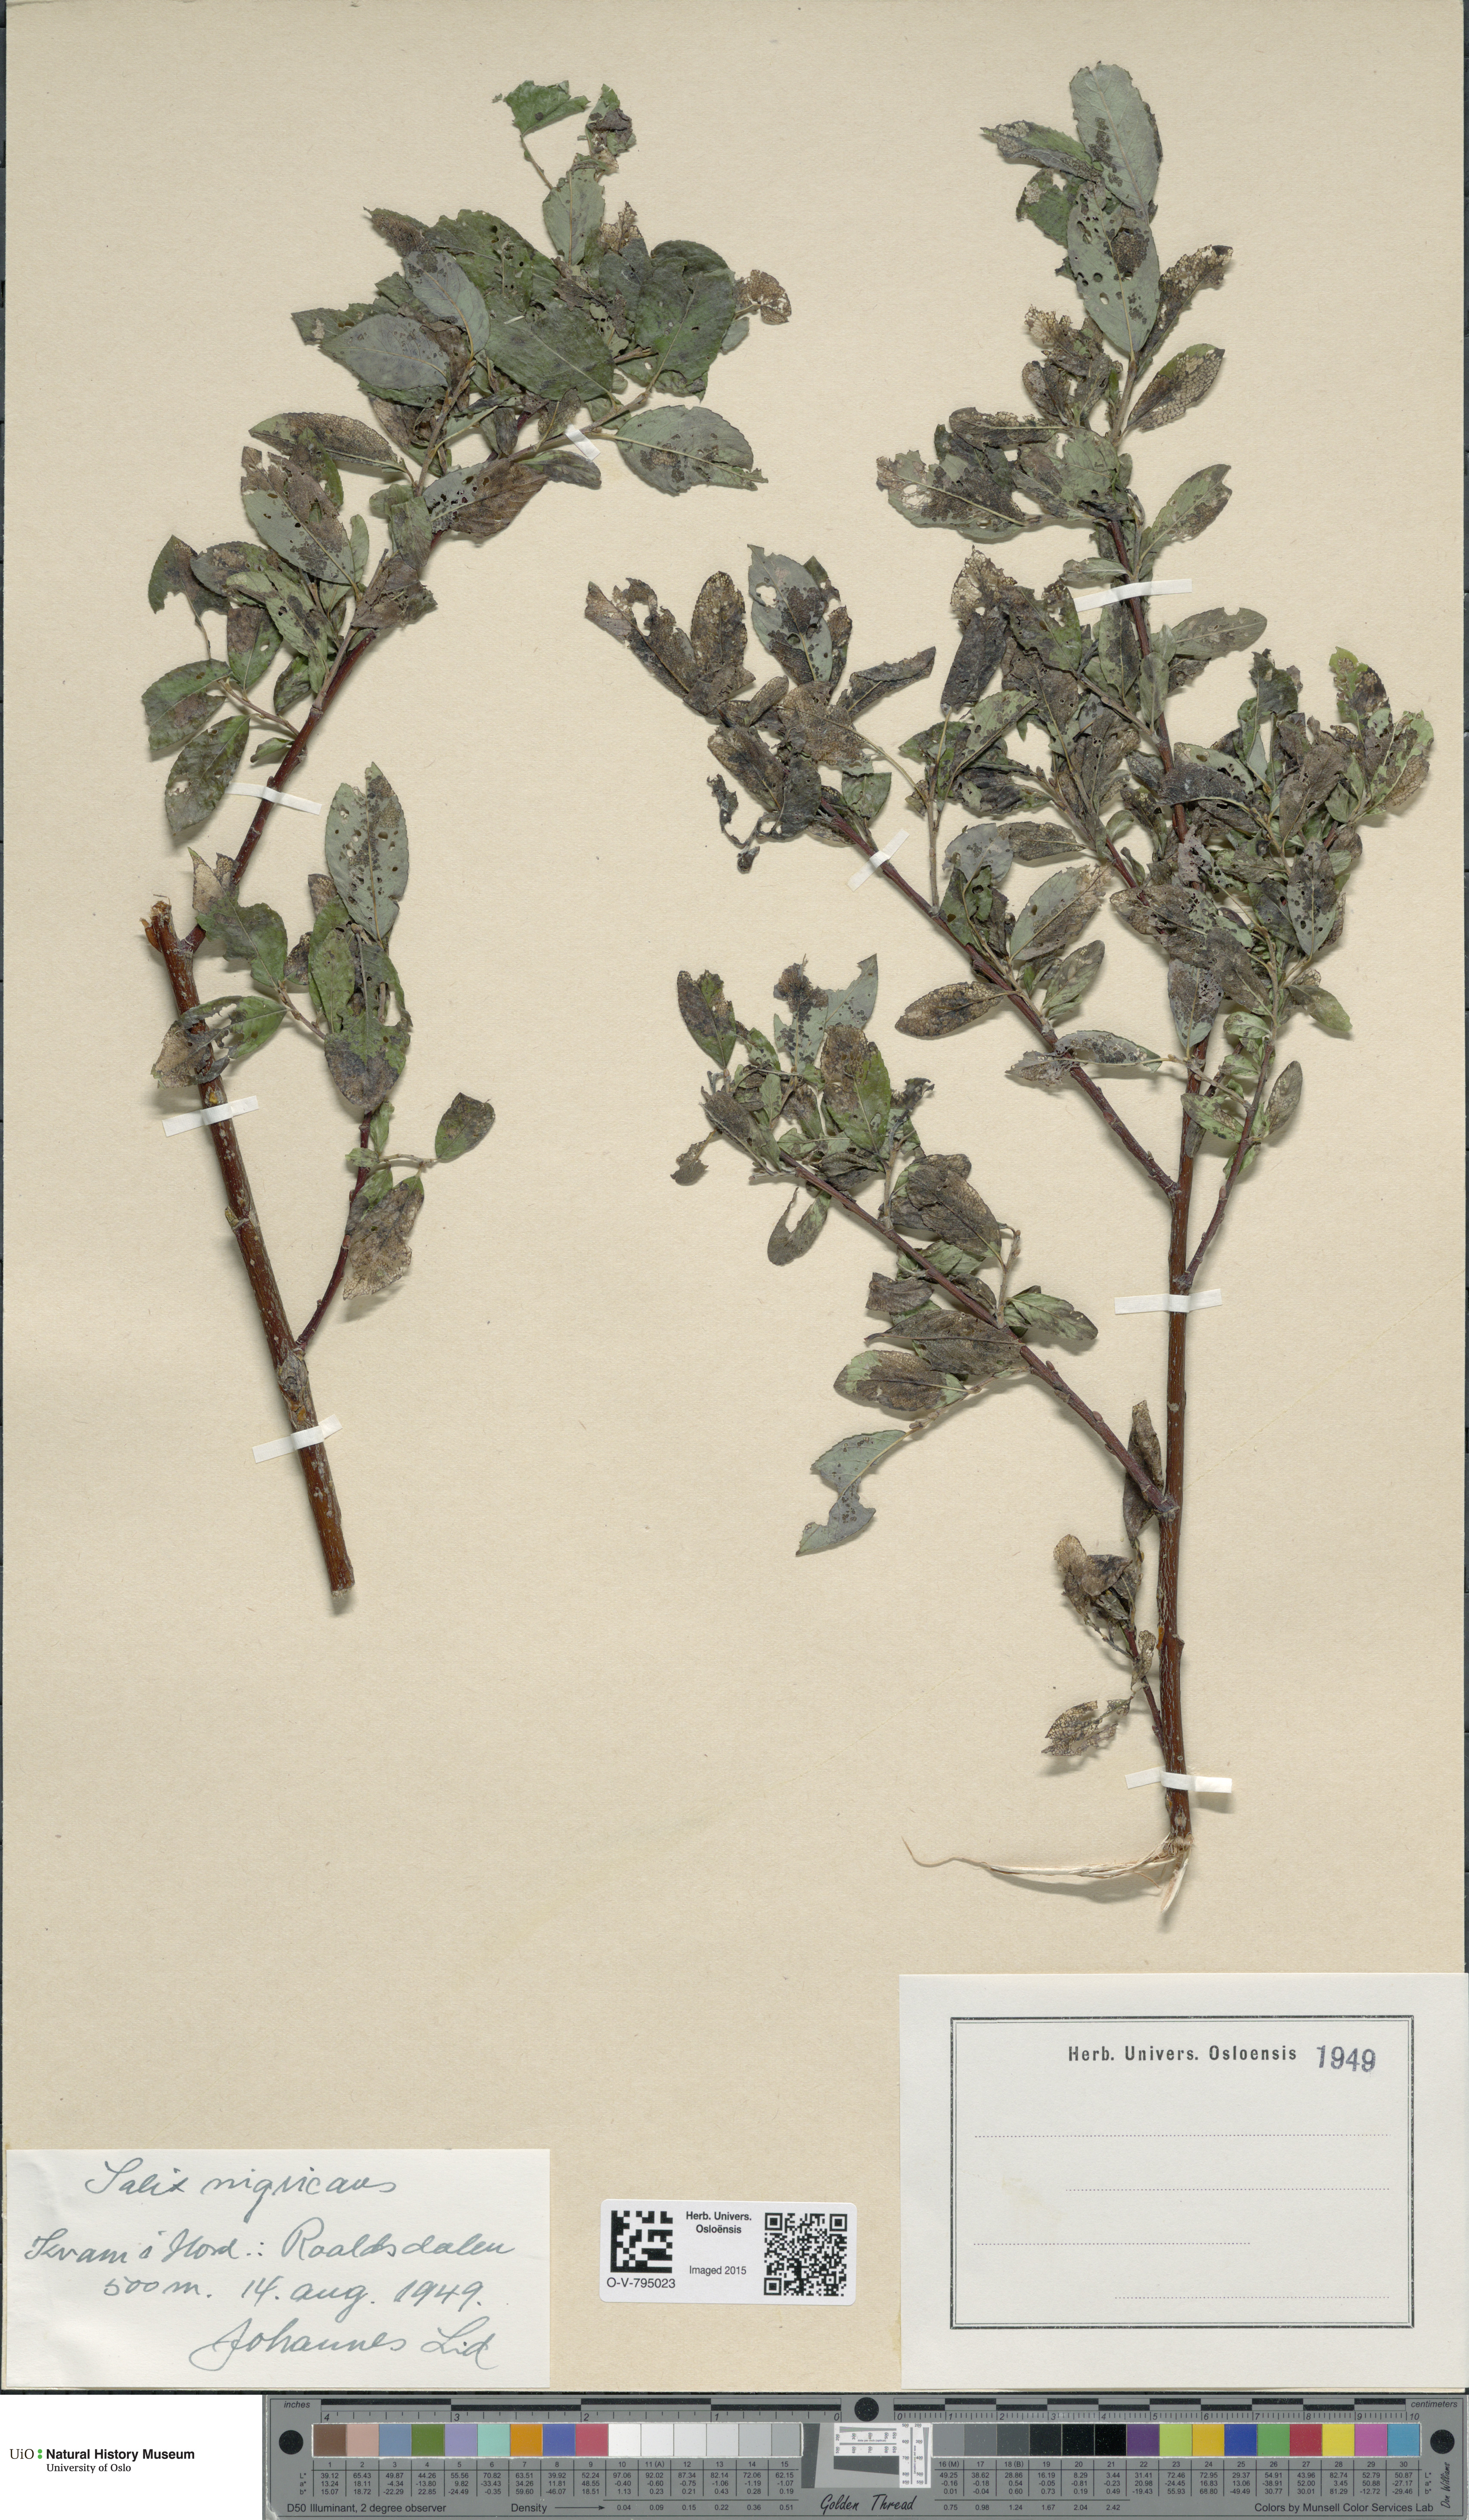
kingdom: Plantae
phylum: Tracheophyta
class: Magnoliopsida
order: Malpighiales
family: Salicaceae
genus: Salix
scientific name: Salix myrsinifolia
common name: Dark-leaved willow
